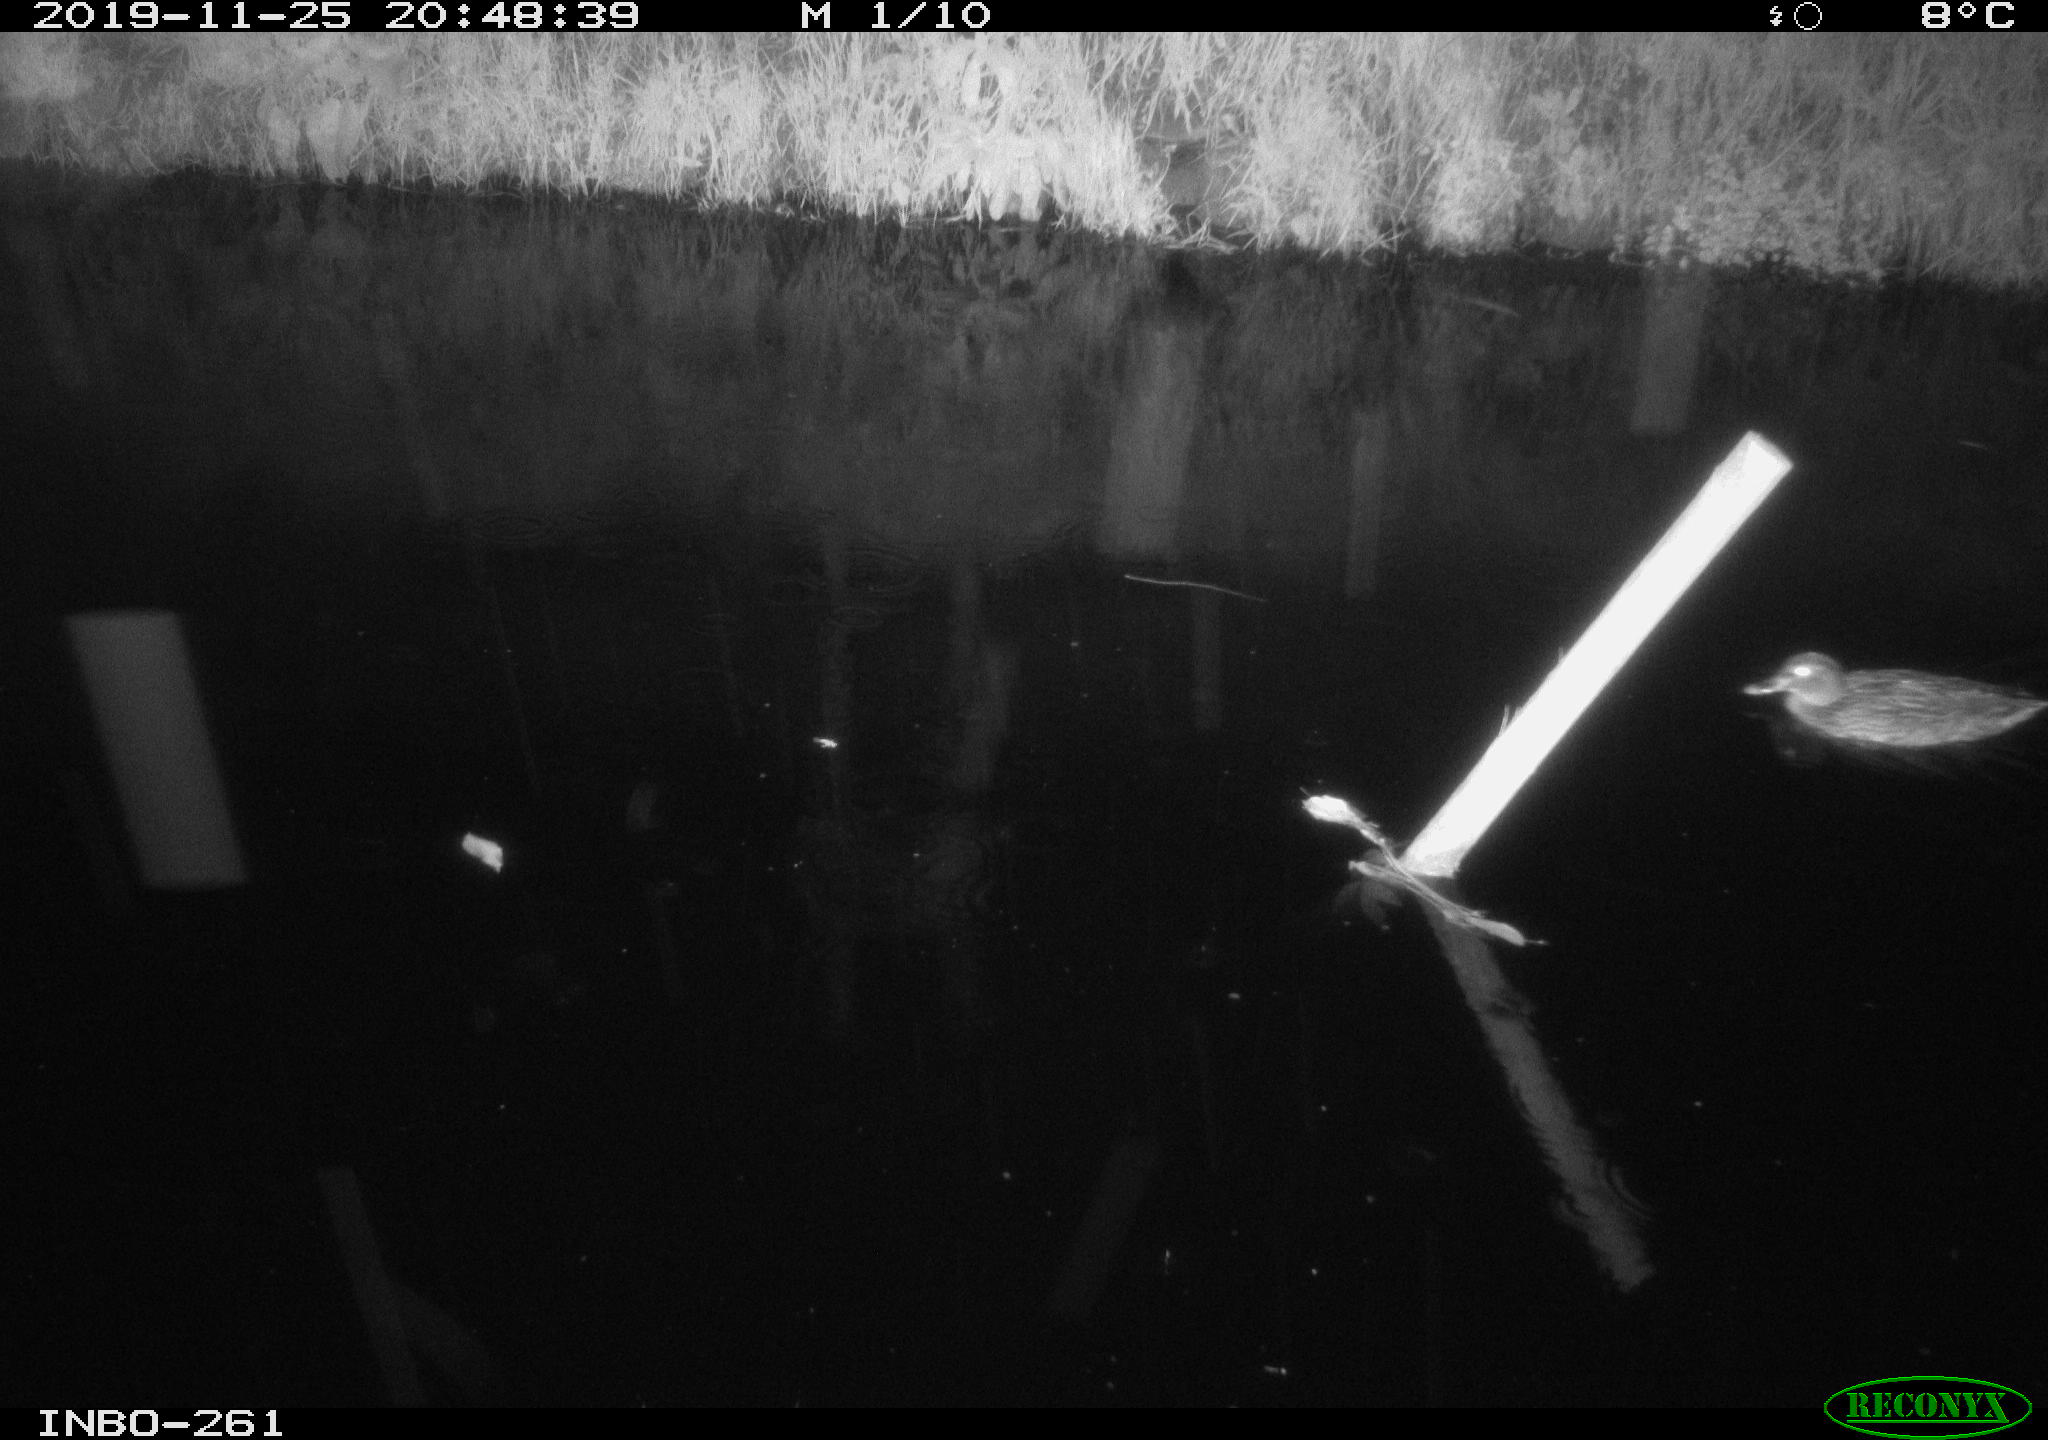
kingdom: Animalia
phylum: Chordata
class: Aves
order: Anseriformes
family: Anatidae
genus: Anas
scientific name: Anas platyrhynchos
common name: Mallard
